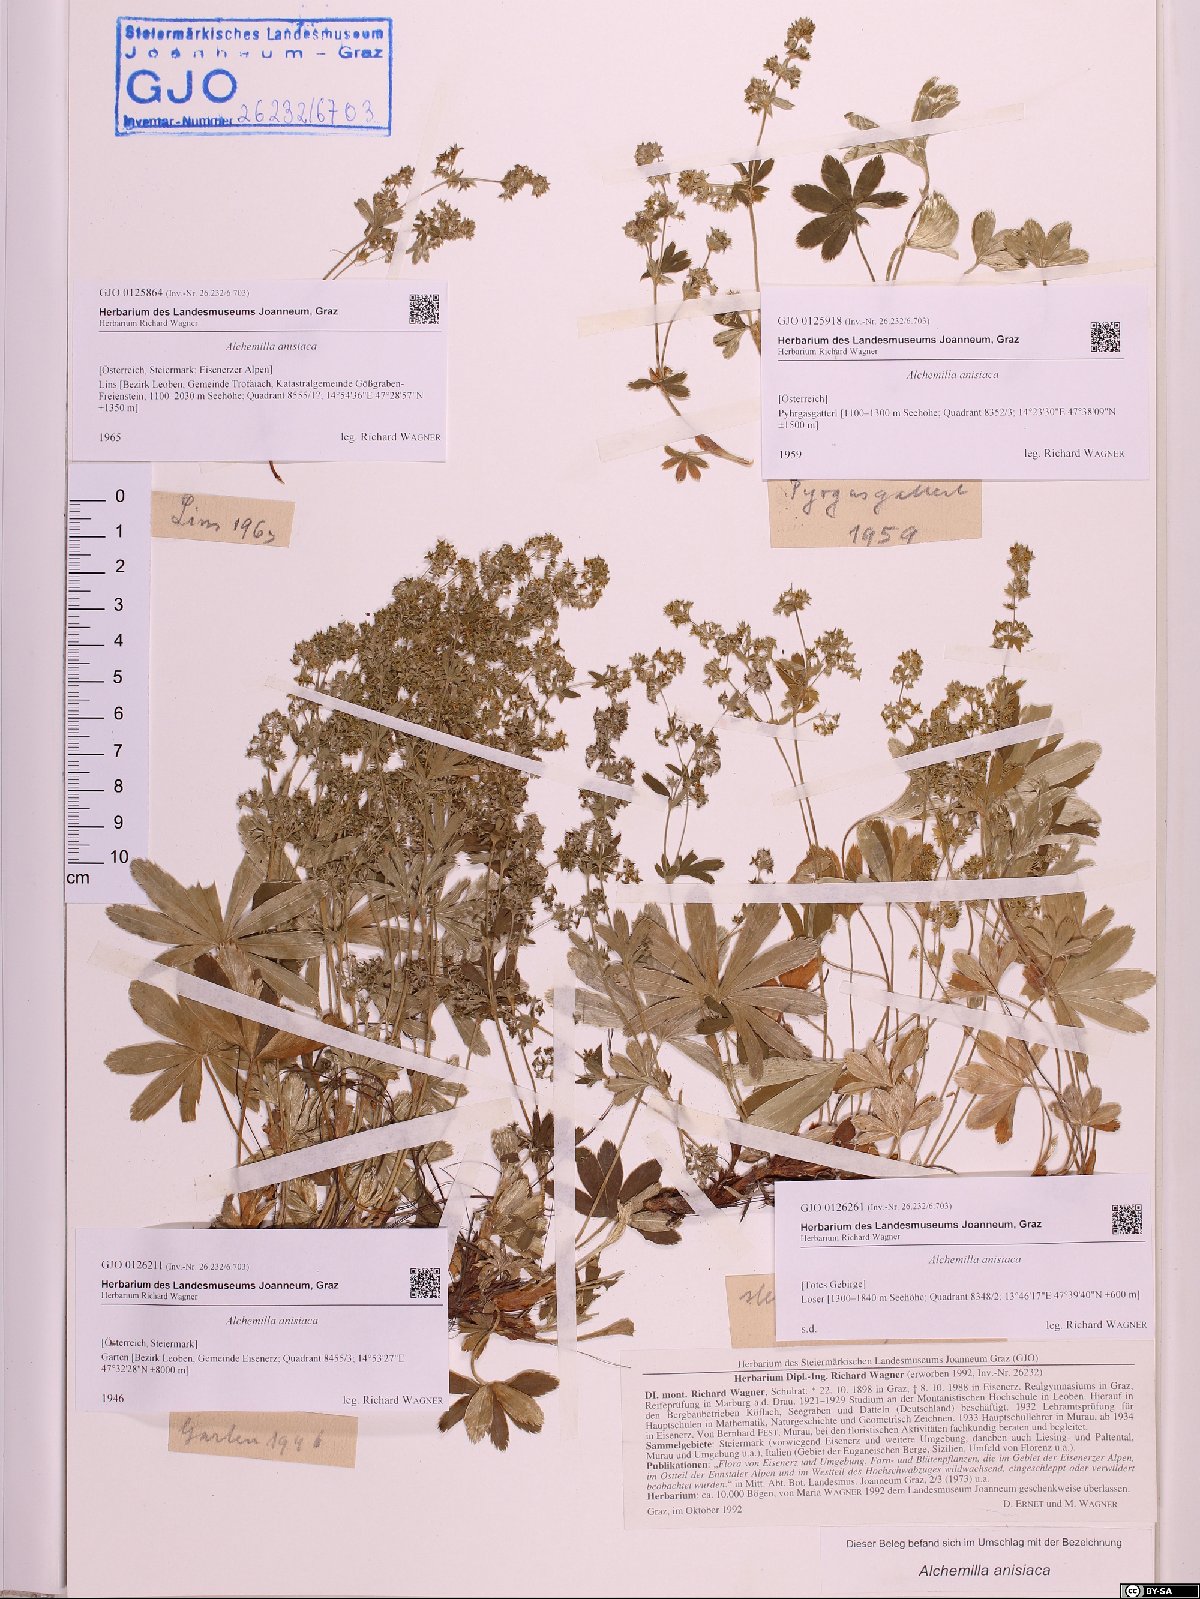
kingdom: Plantae
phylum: Tracheophyta
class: Magnoliopsida
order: Rosales
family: Rosaceae
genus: Alchemilla
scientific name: Alchemilla anisiaca
